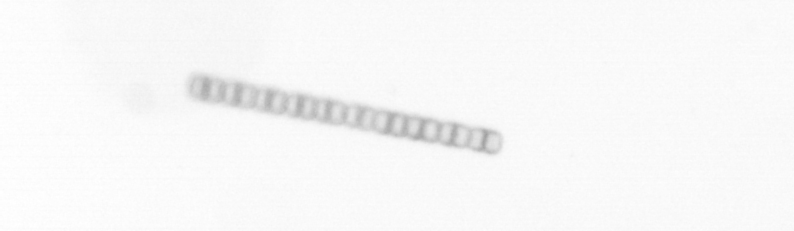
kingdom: Chromista
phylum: Ochrophyta
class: Bacillariophyceae
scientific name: Bacillariophyceae
